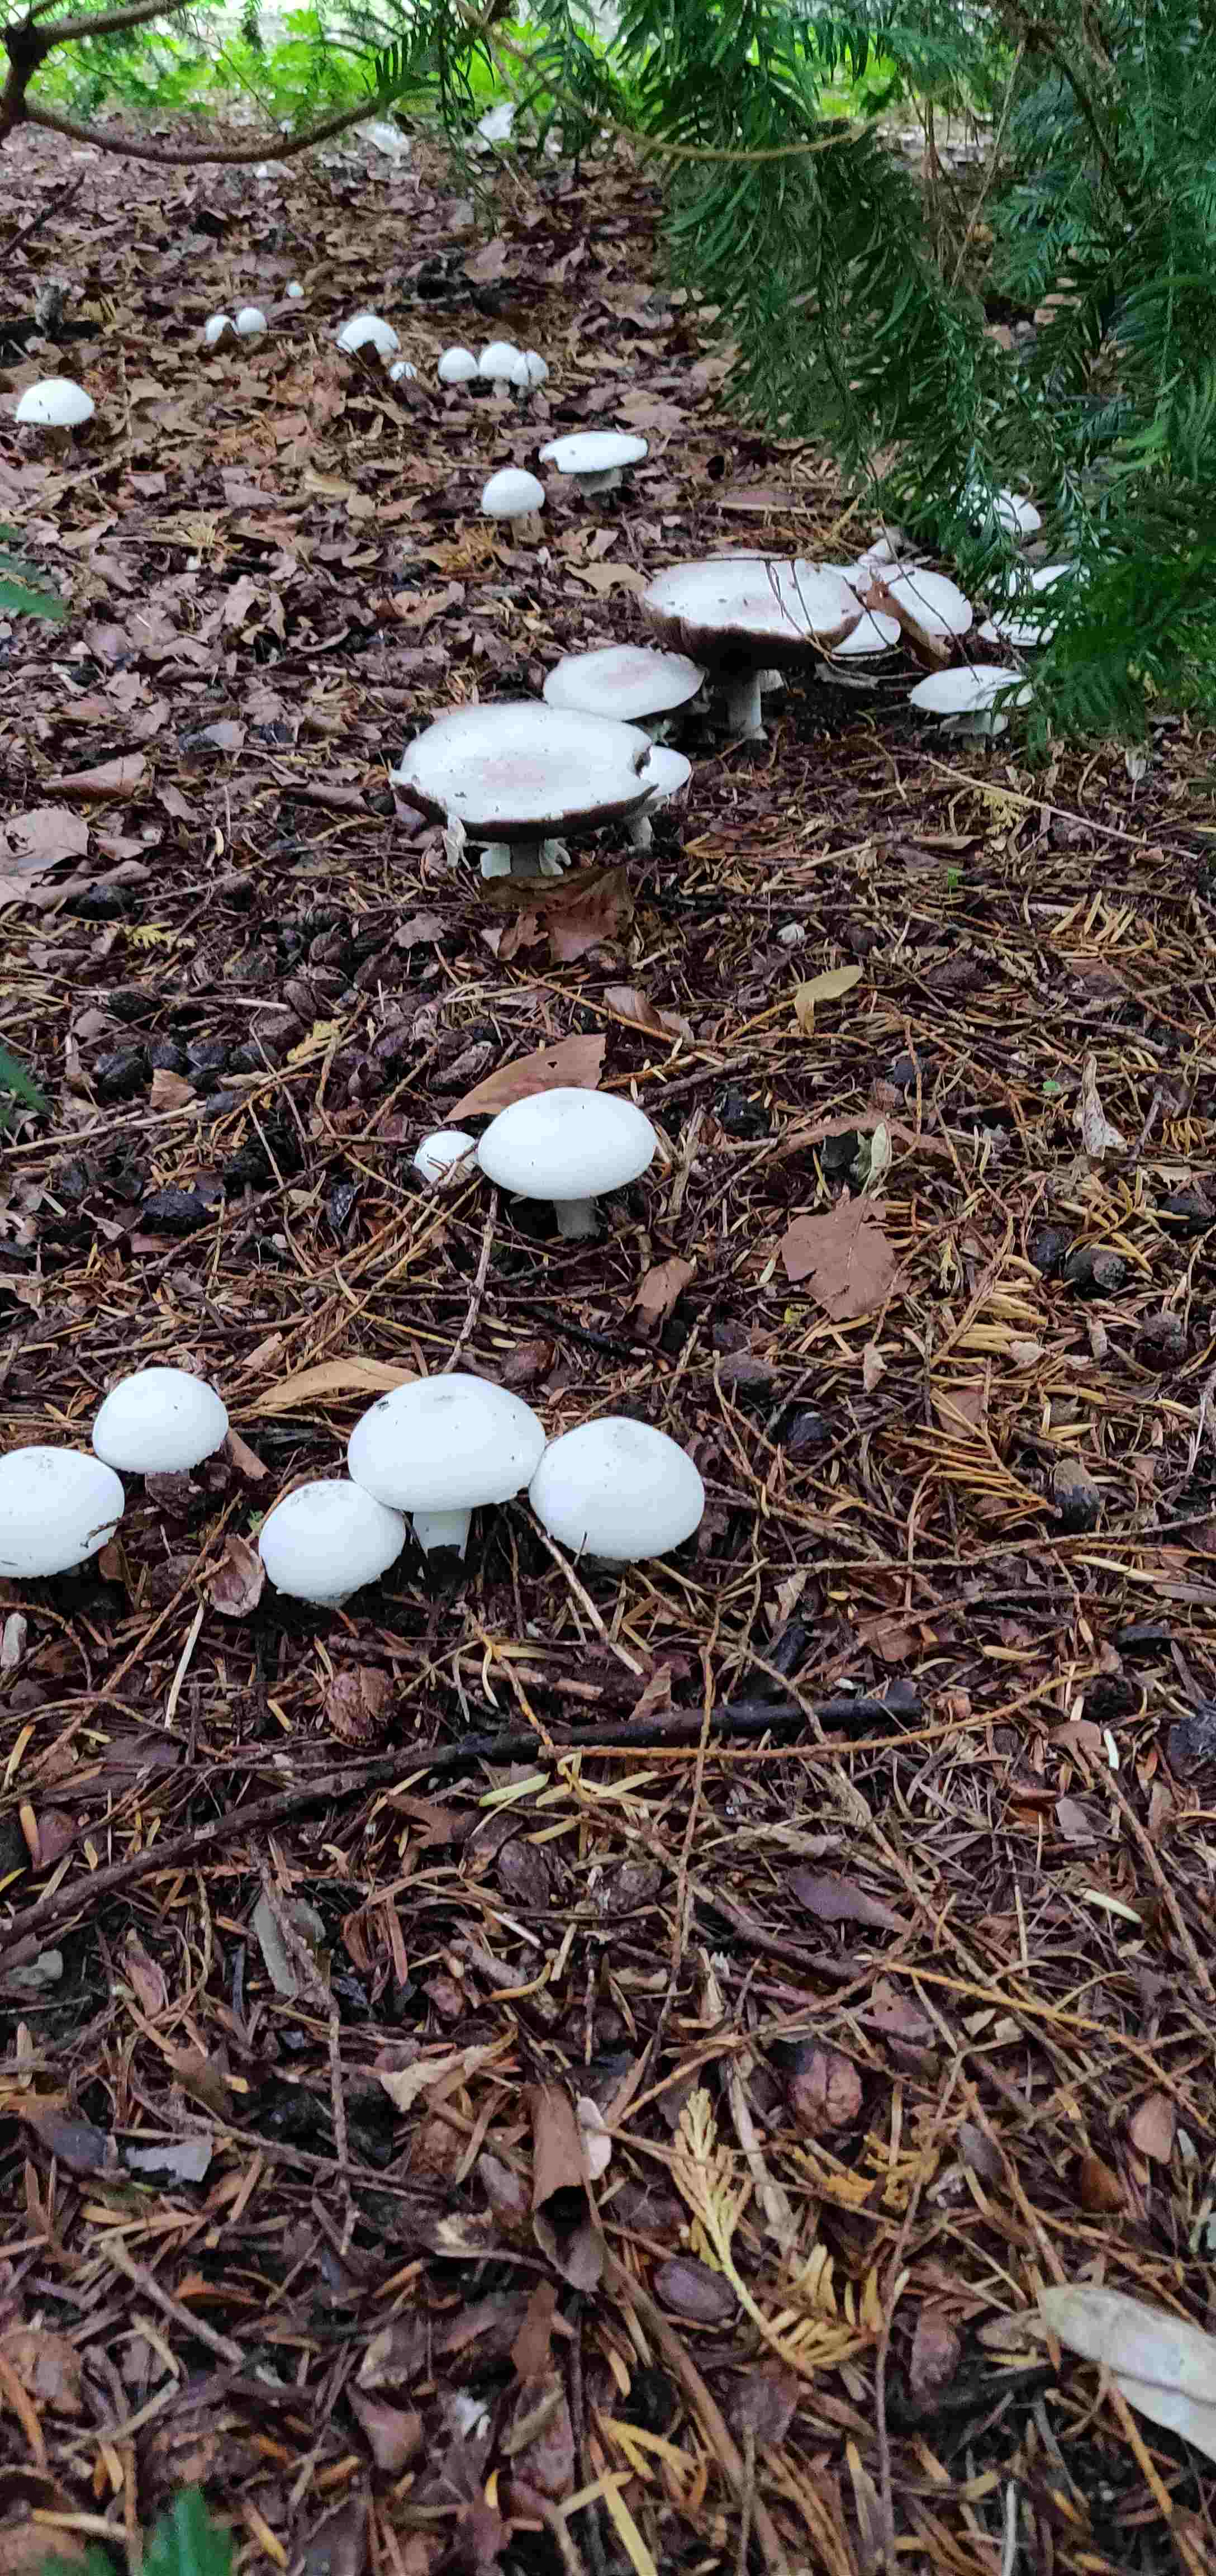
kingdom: Fungi
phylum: Basidiomycota
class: Agaricomycetes
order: Agaricales
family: Agaricaceae
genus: Agaricus
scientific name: Agaricus xanthodermus
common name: karbol-champignon
